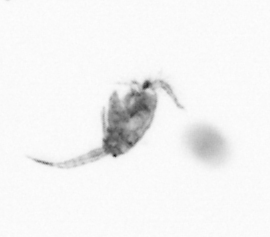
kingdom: Animalia
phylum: Arthropoda
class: Copepoda
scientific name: Copepoda
